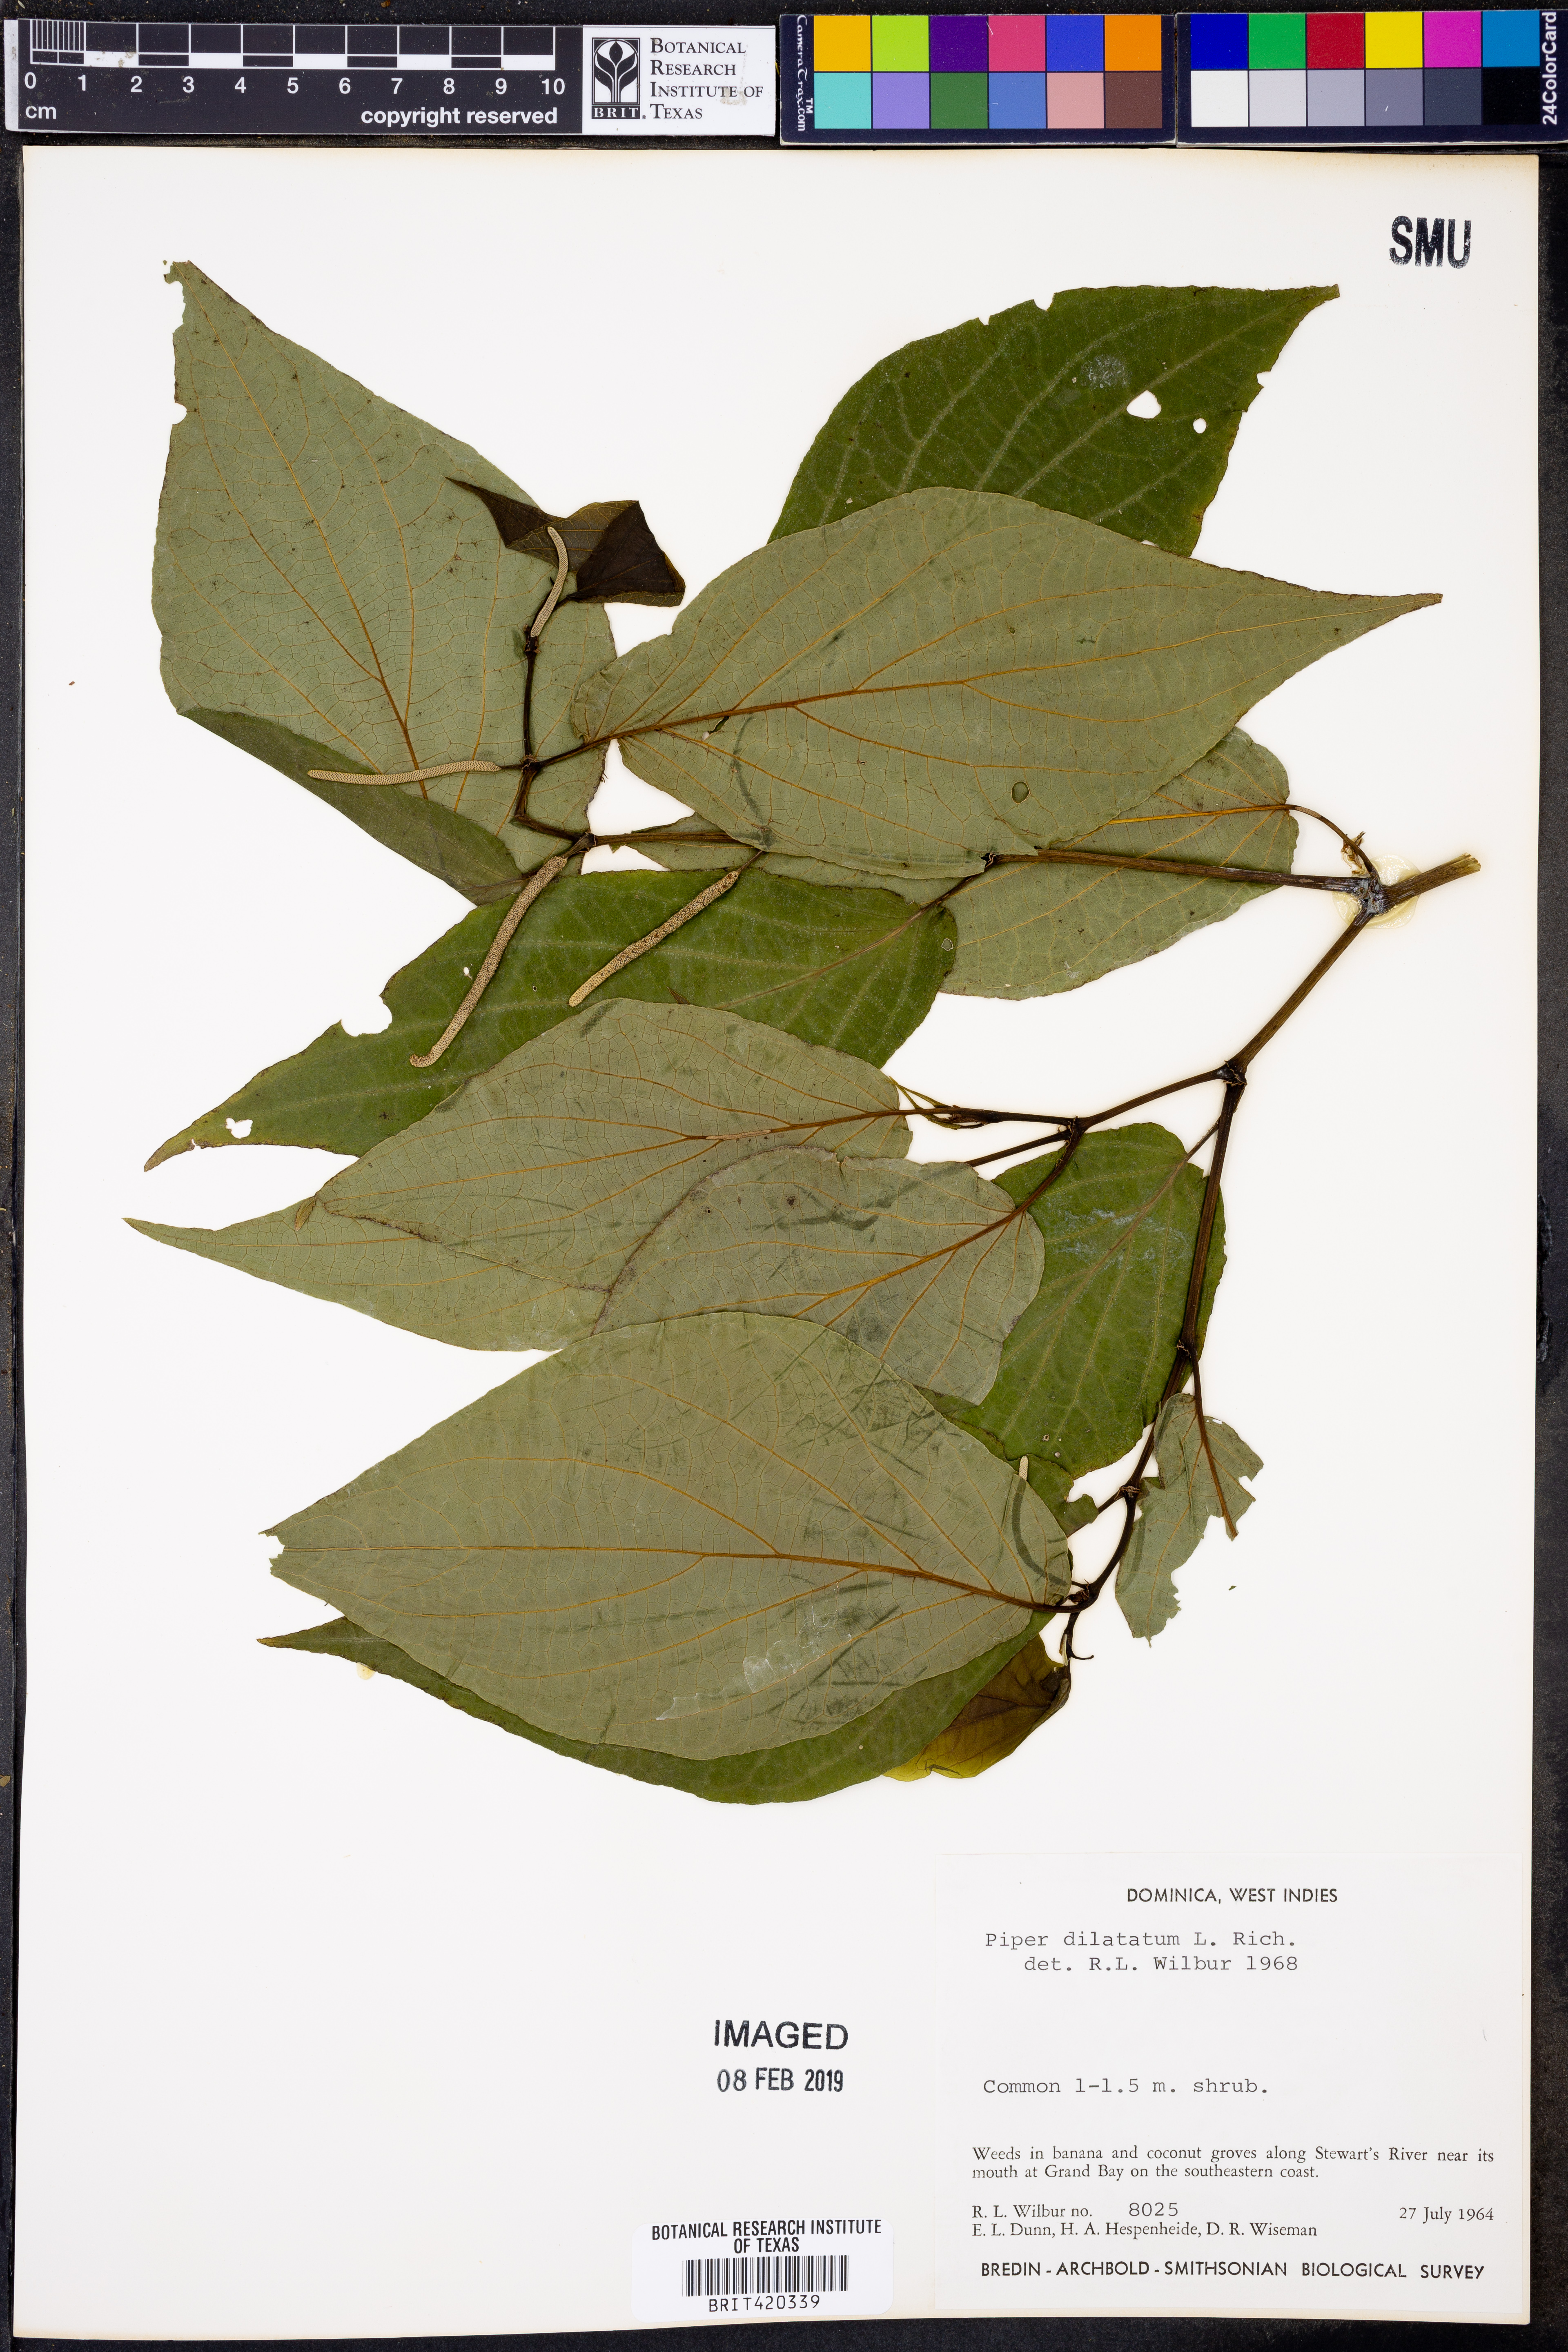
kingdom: Plantae
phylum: Tracheophyta
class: Magnoliopsida
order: Piperales
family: Piperaceae
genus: Piper
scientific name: Piper dilatatum
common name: Higuillo
